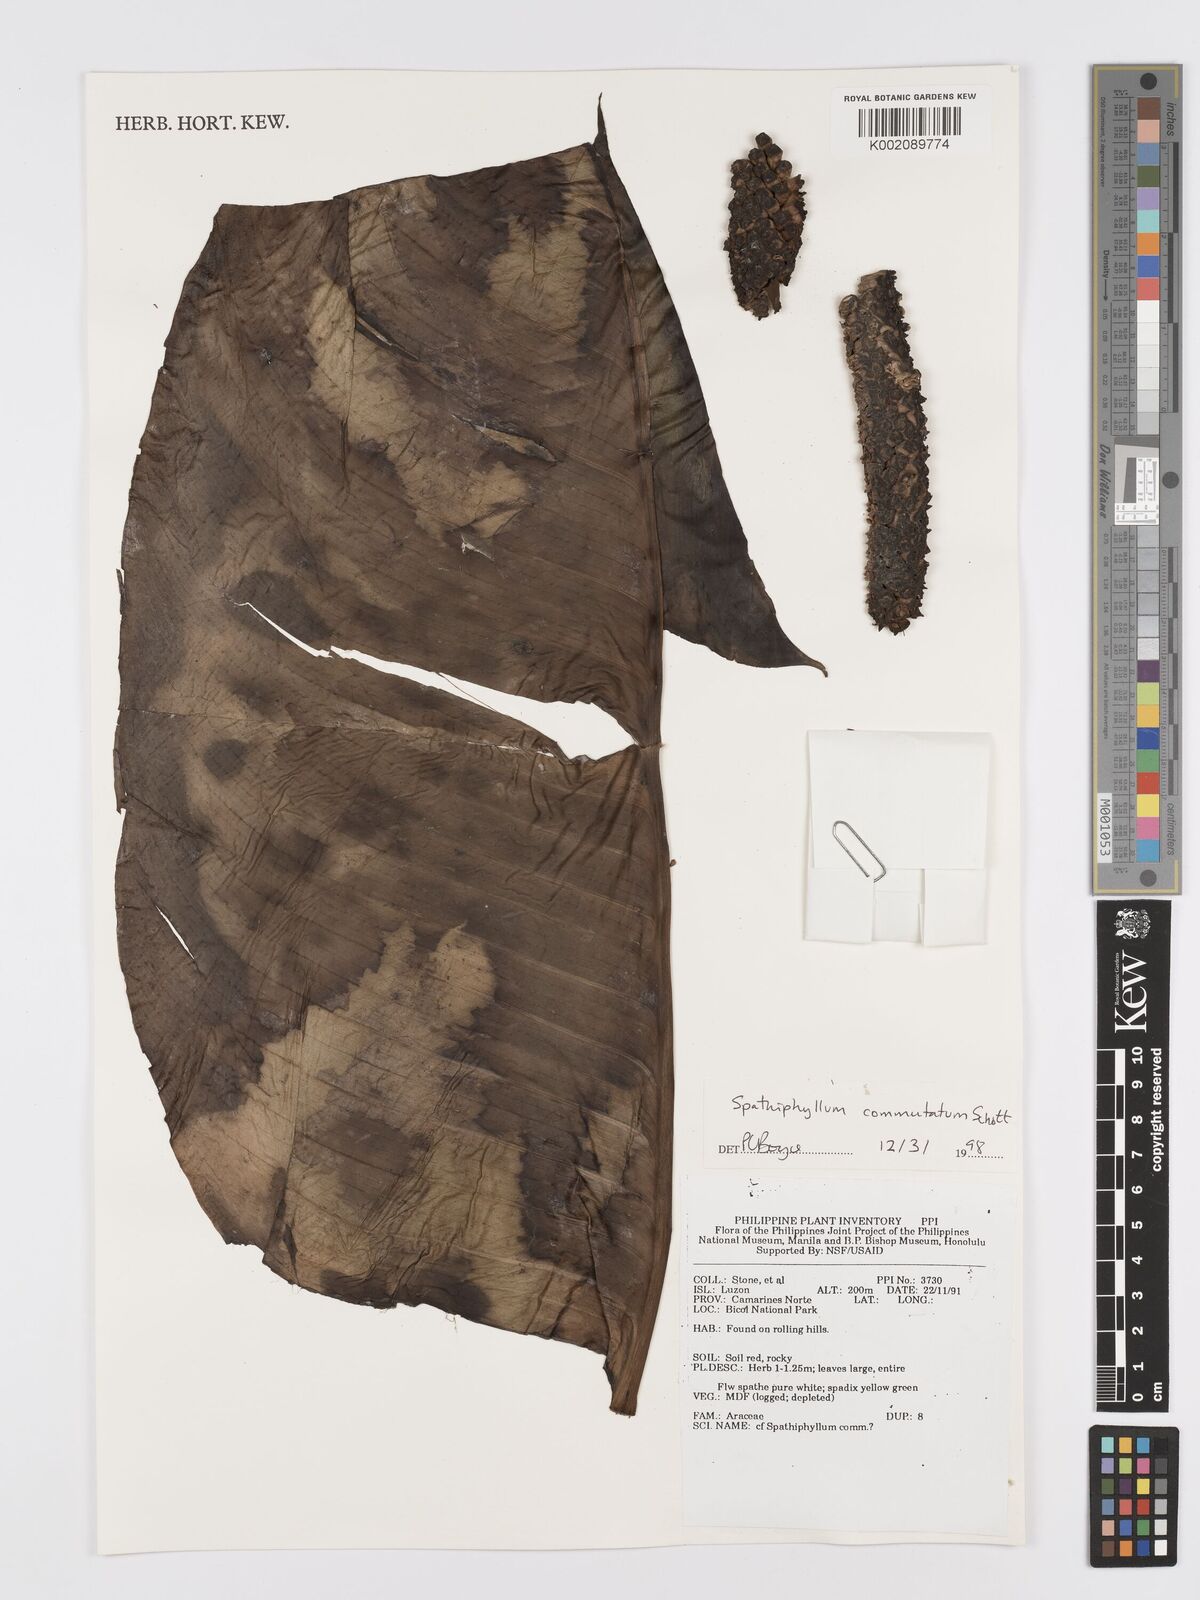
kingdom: Plantae
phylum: Tracheophyta
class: Liliopsida
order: Alismatales
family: Araceae
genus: Spathiphyllum
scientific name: Spathiphyllum commutatum
